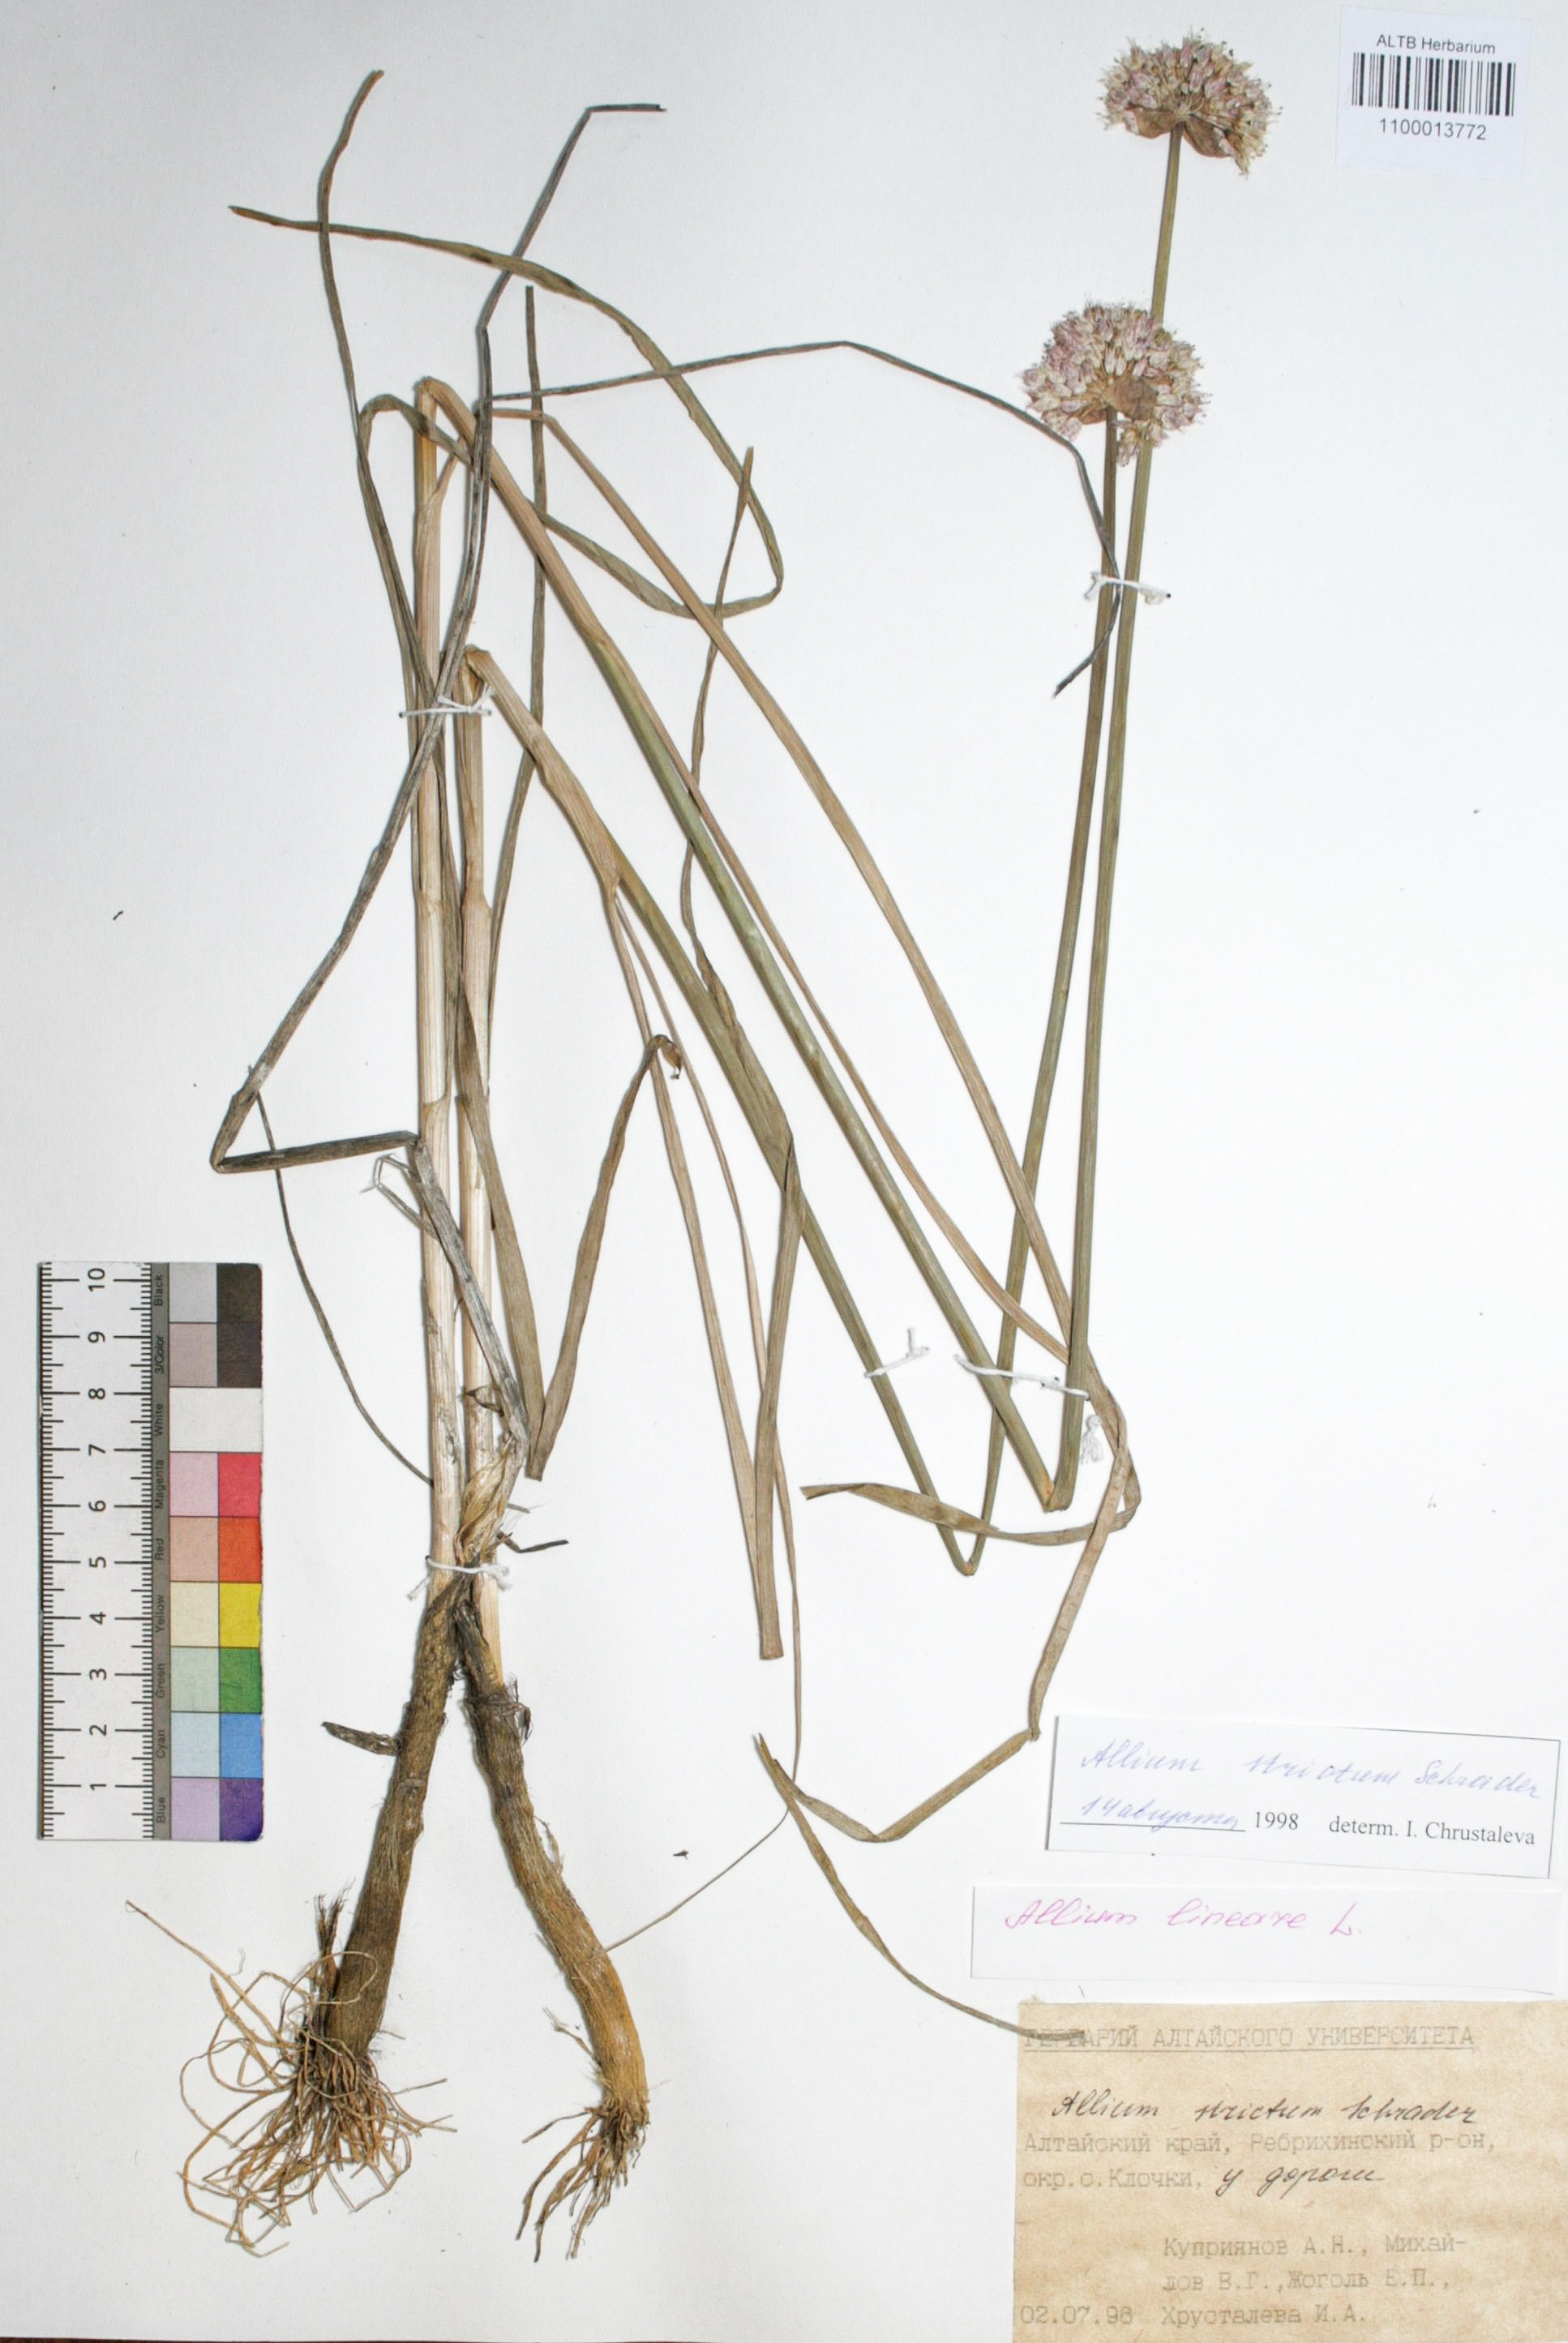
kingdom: Plantae
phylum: Tracheophyta
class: Liliopsida
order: Asparagales
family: Amaryllidaceae
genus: Allium
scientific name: Allium strictum
